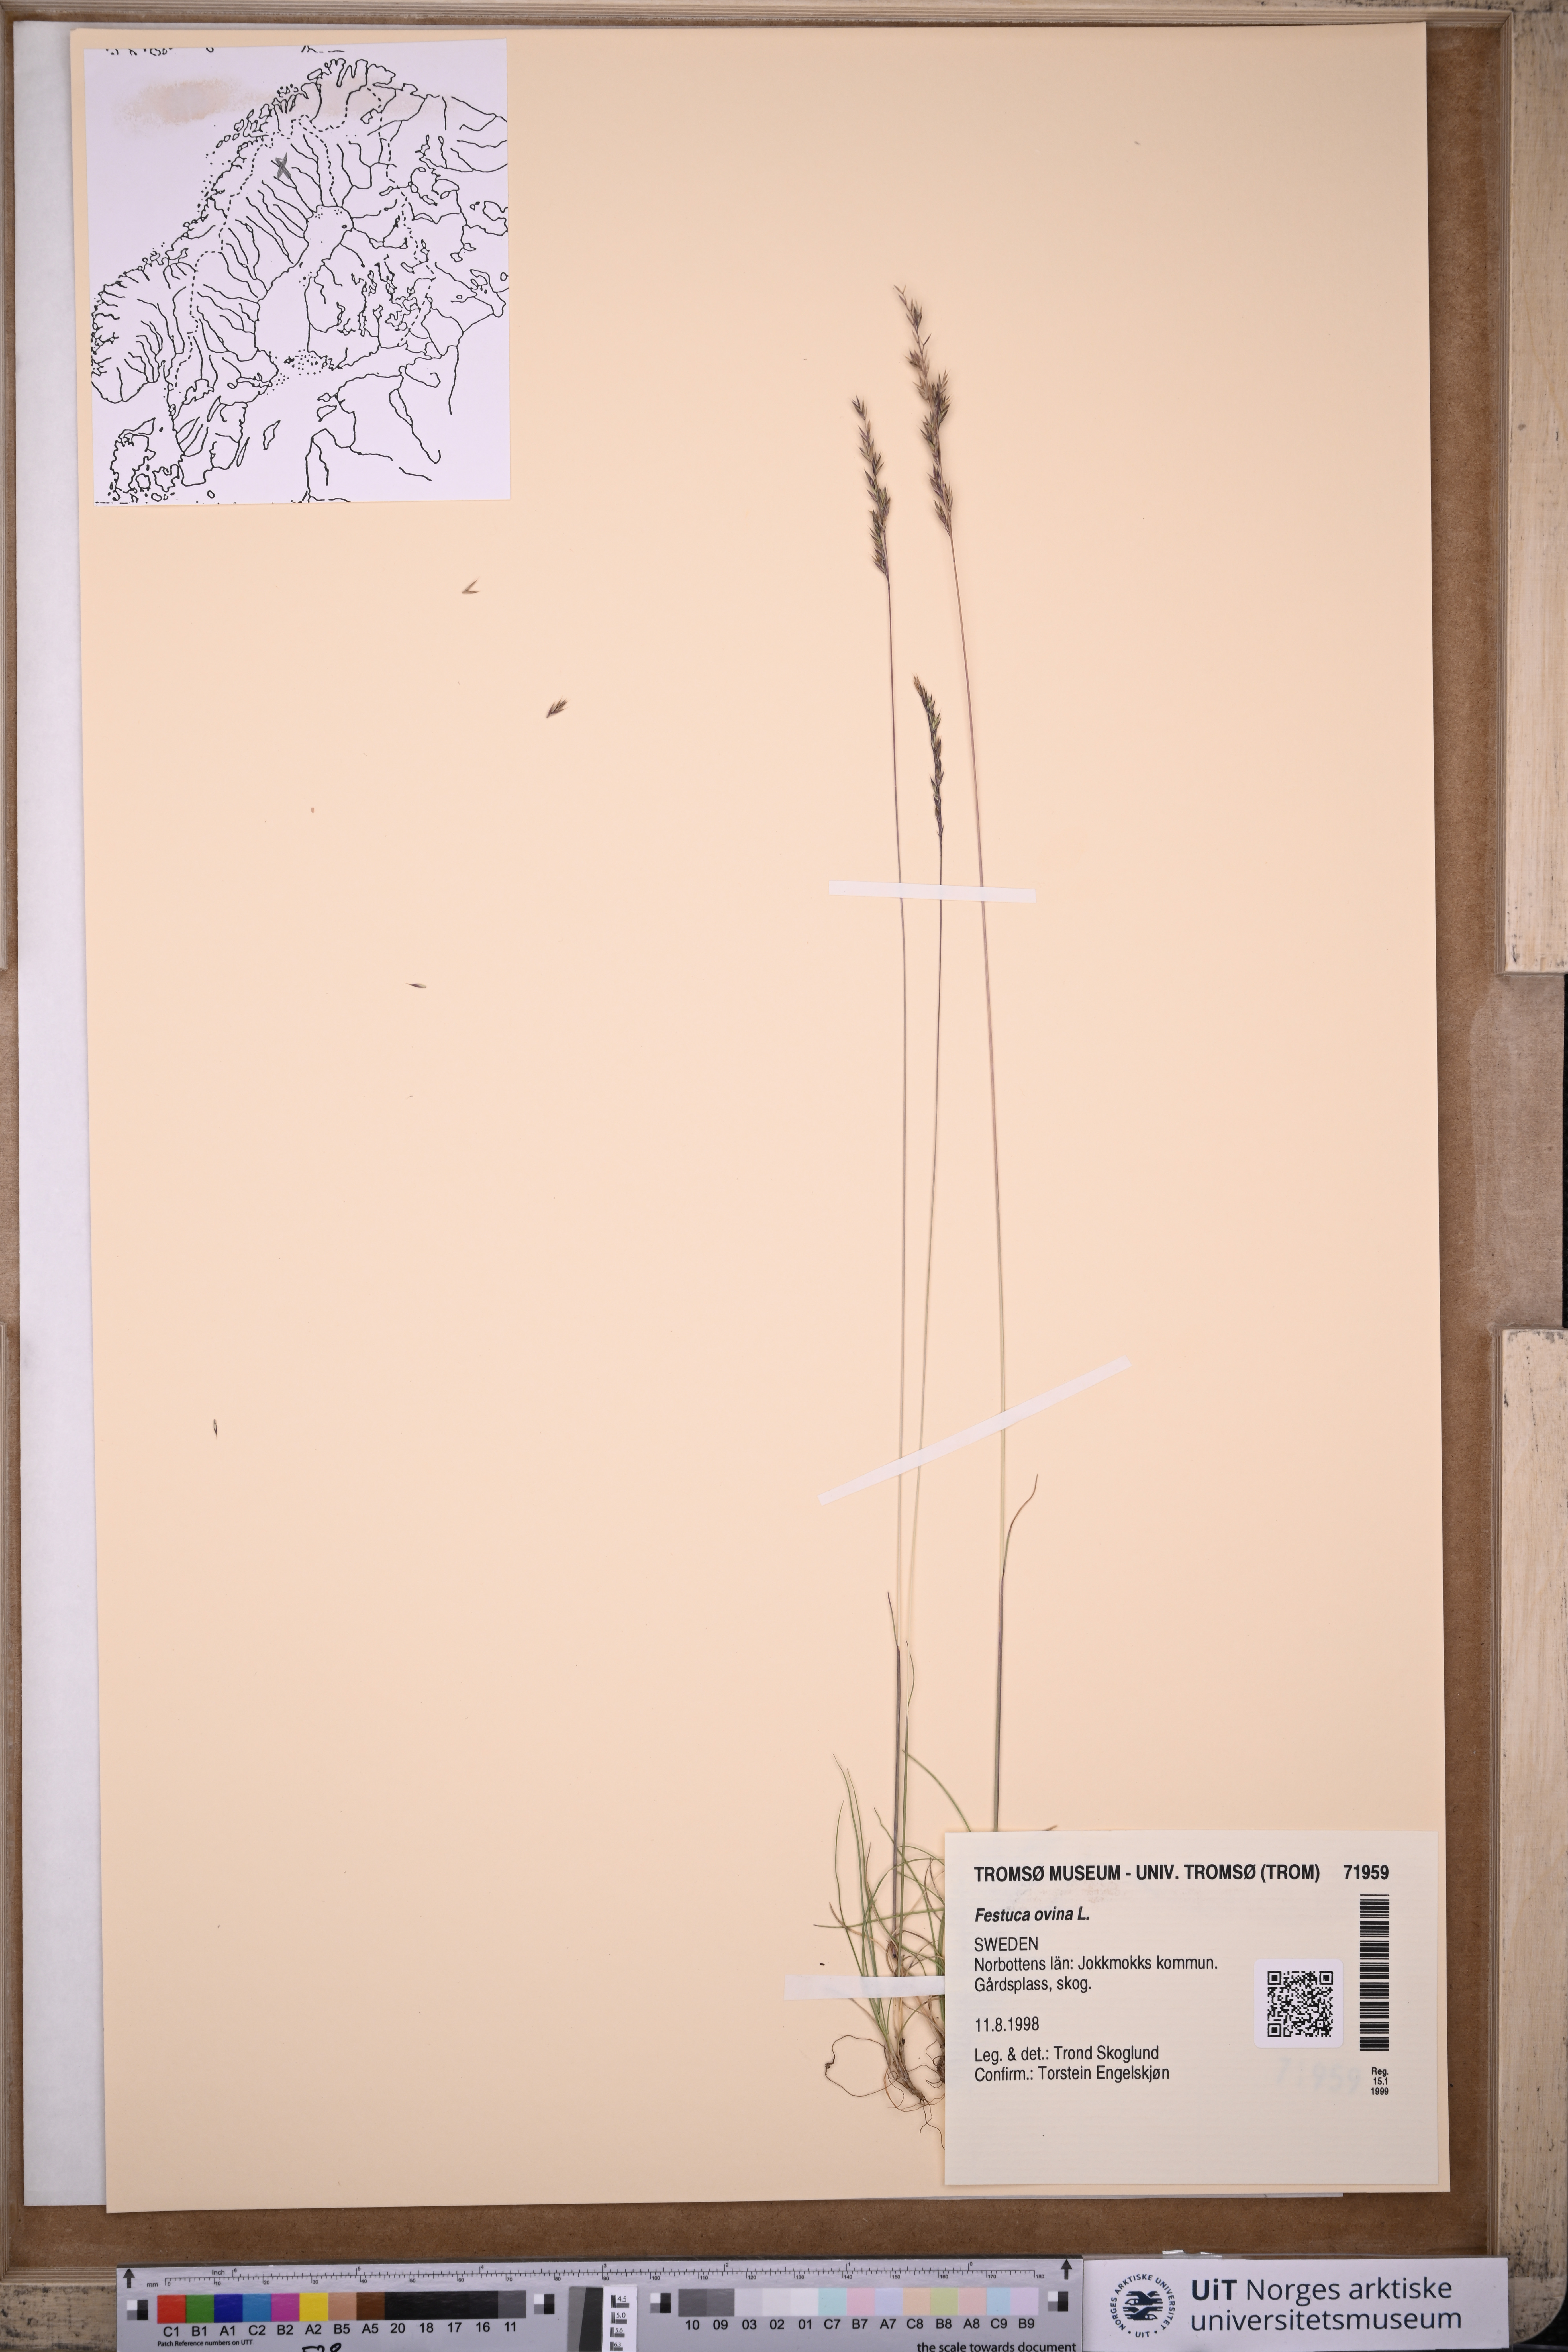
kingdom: Plantae
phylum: Tracheophyta
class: Liliopsida
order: Poales
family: Poaceae
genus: Festuca
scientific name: Festuca ovina
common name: Sheep fescue
